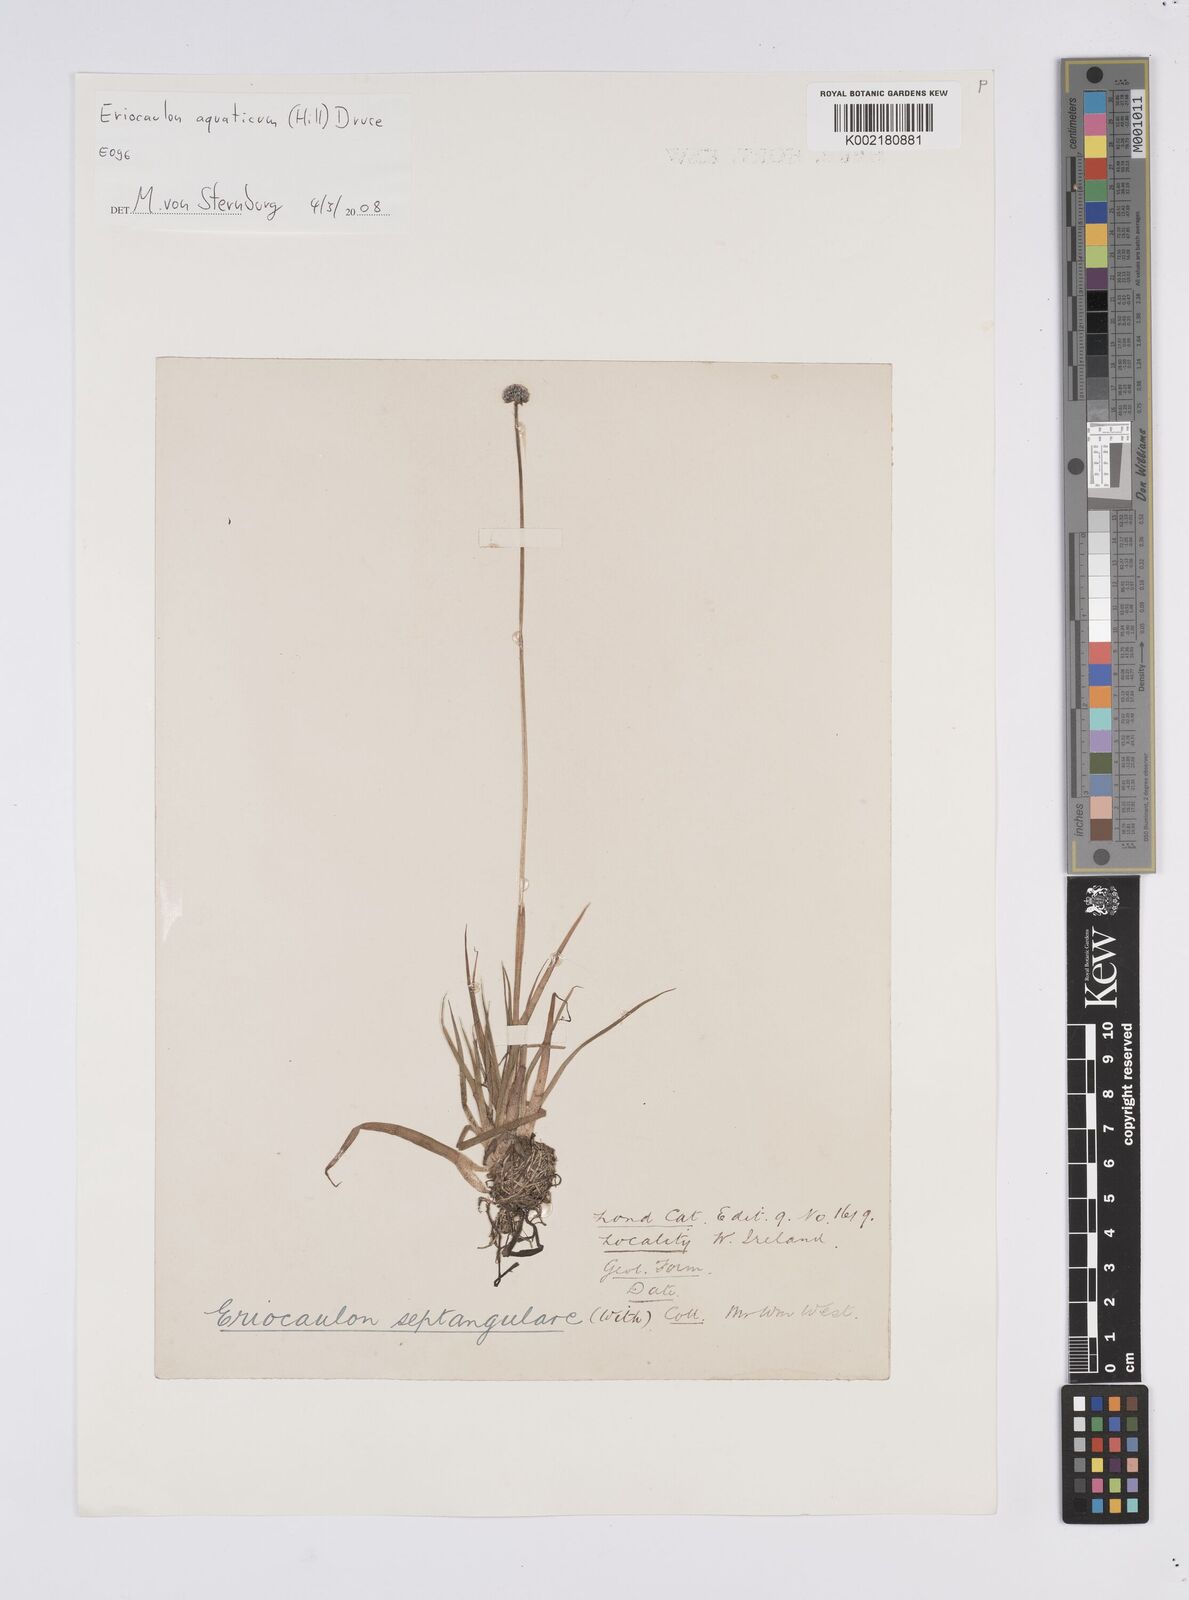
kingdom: Plantae
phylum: Tracheophyta
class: Liliopsida
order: Poales
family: Eriocaulaceae
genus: Eriocaulon
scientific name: Eriocaulon aquaticum
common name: Pipewort
